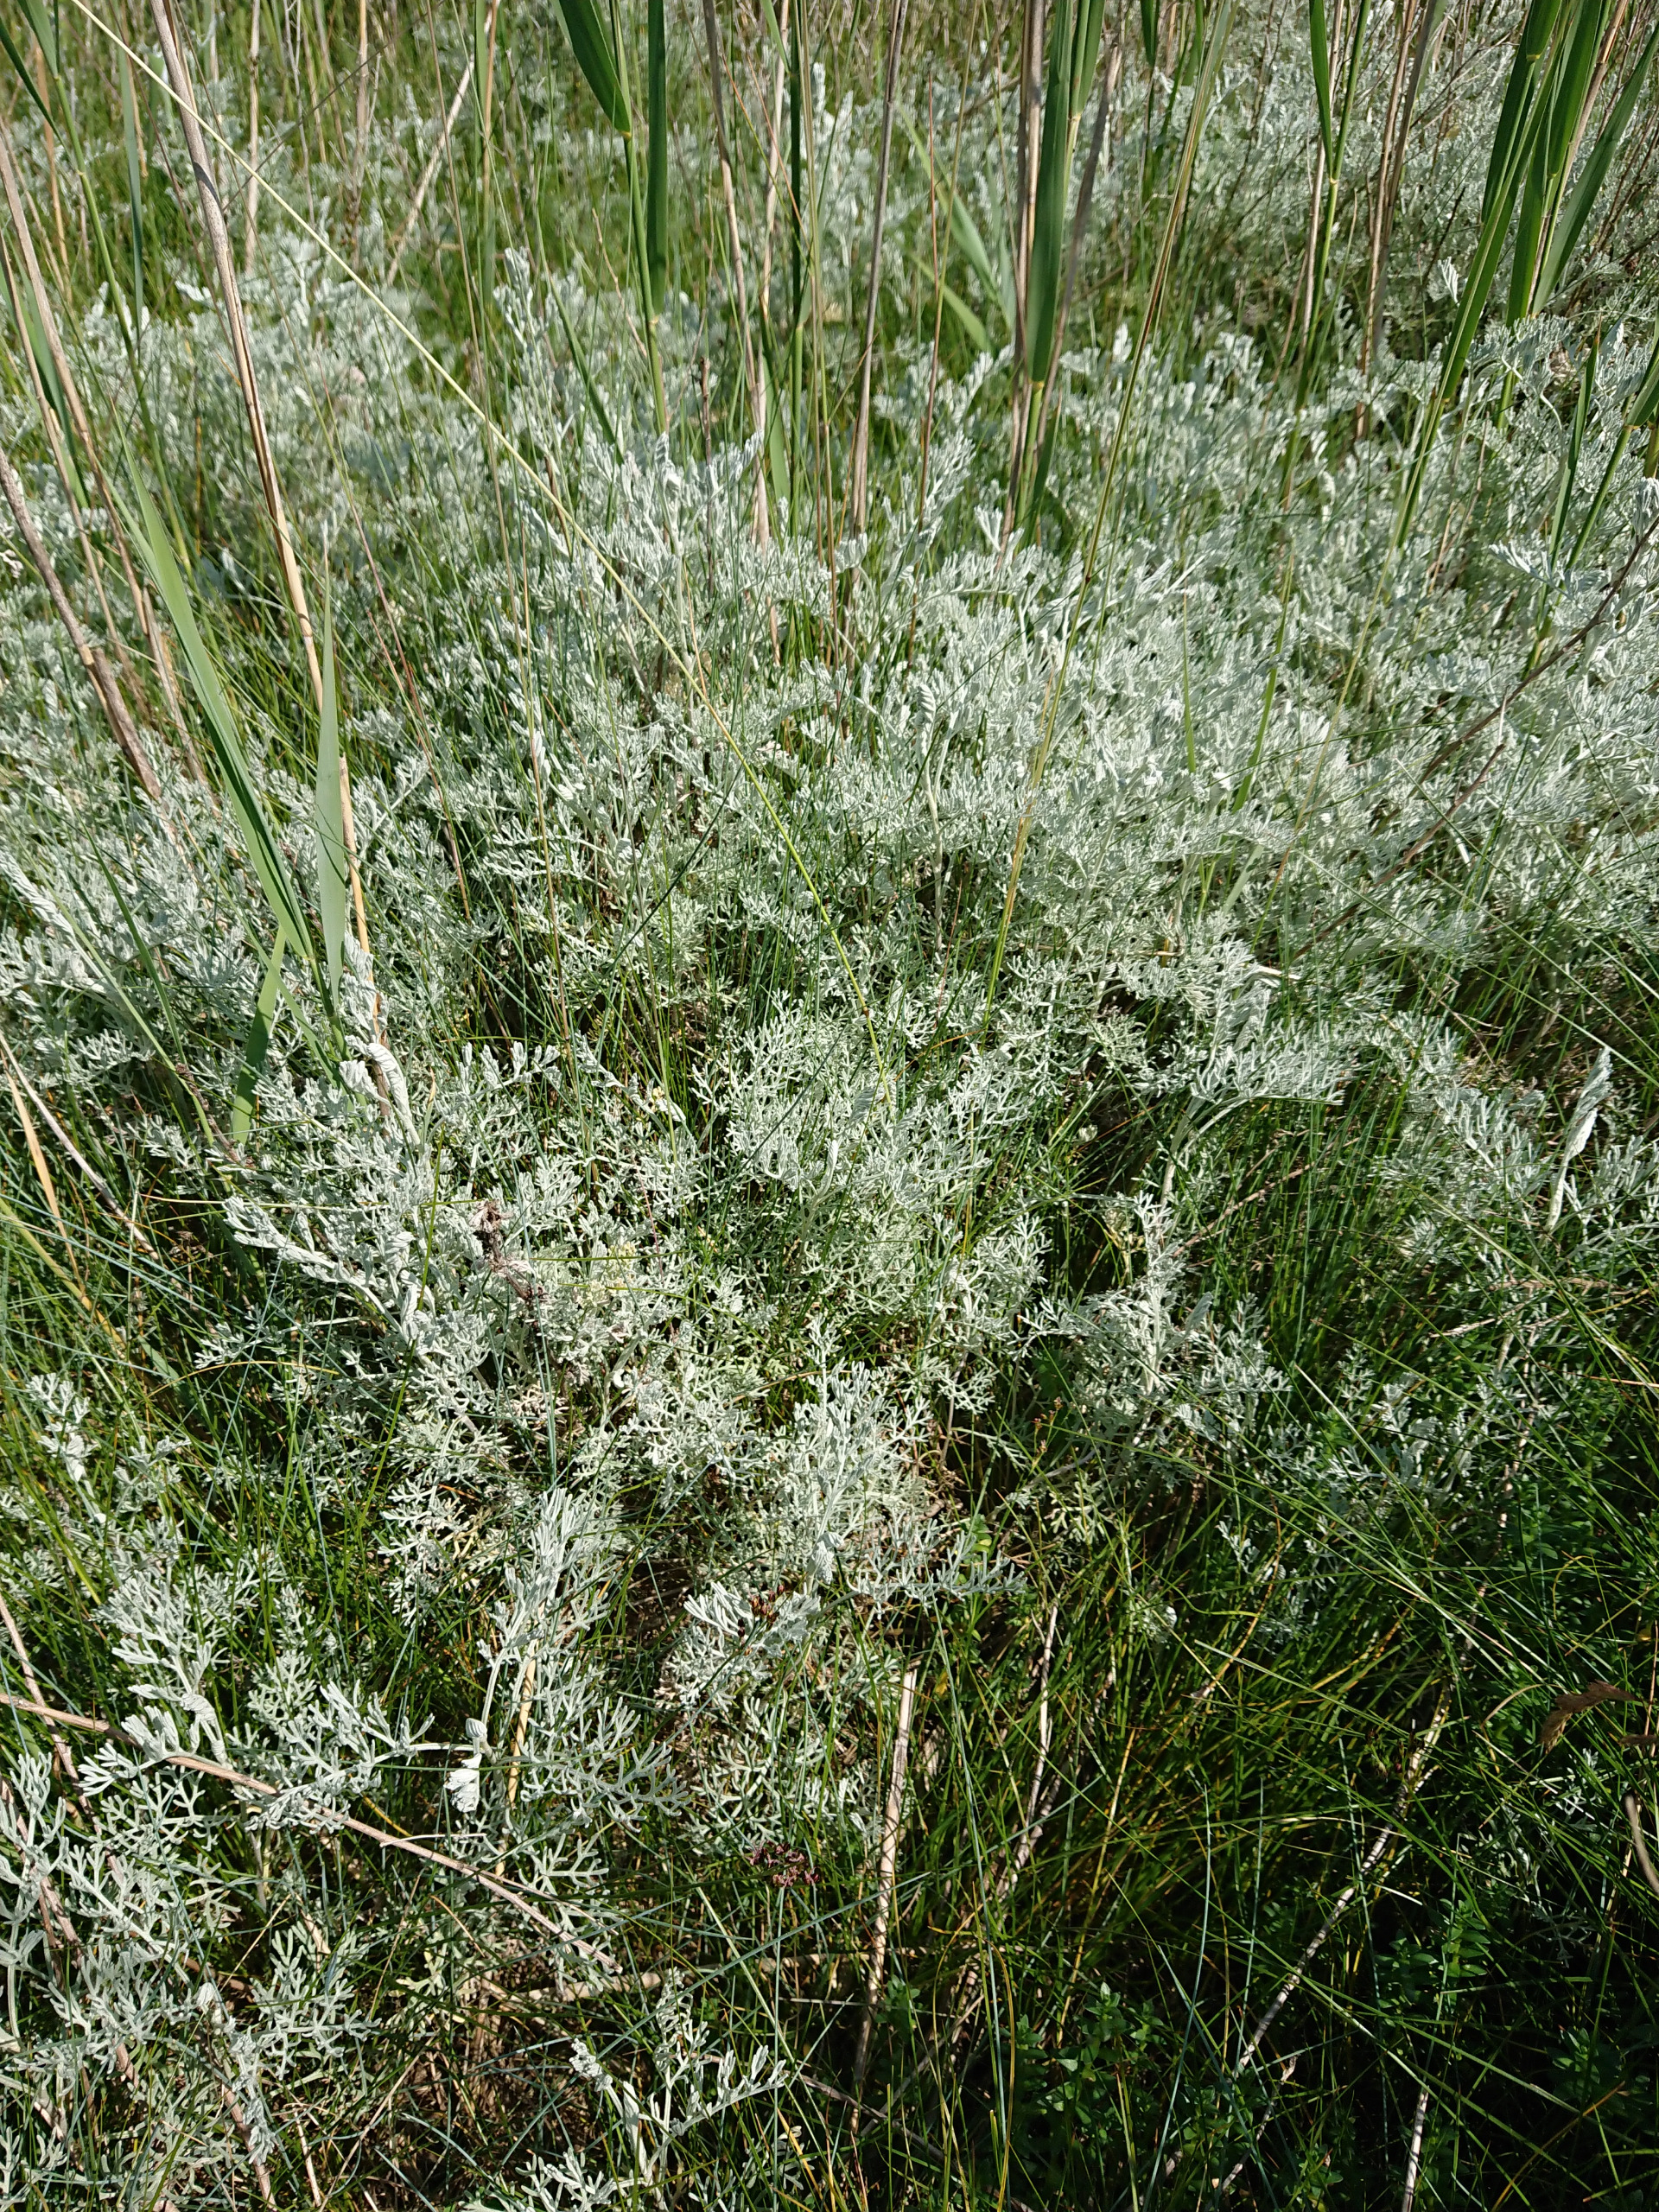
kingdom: Plantae
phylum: Tracheophyta
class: Magnoliopsida
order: Asterales
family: Asteraceae
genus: Artemisia
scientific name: Artemisia maritima
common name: Strandmalurt
